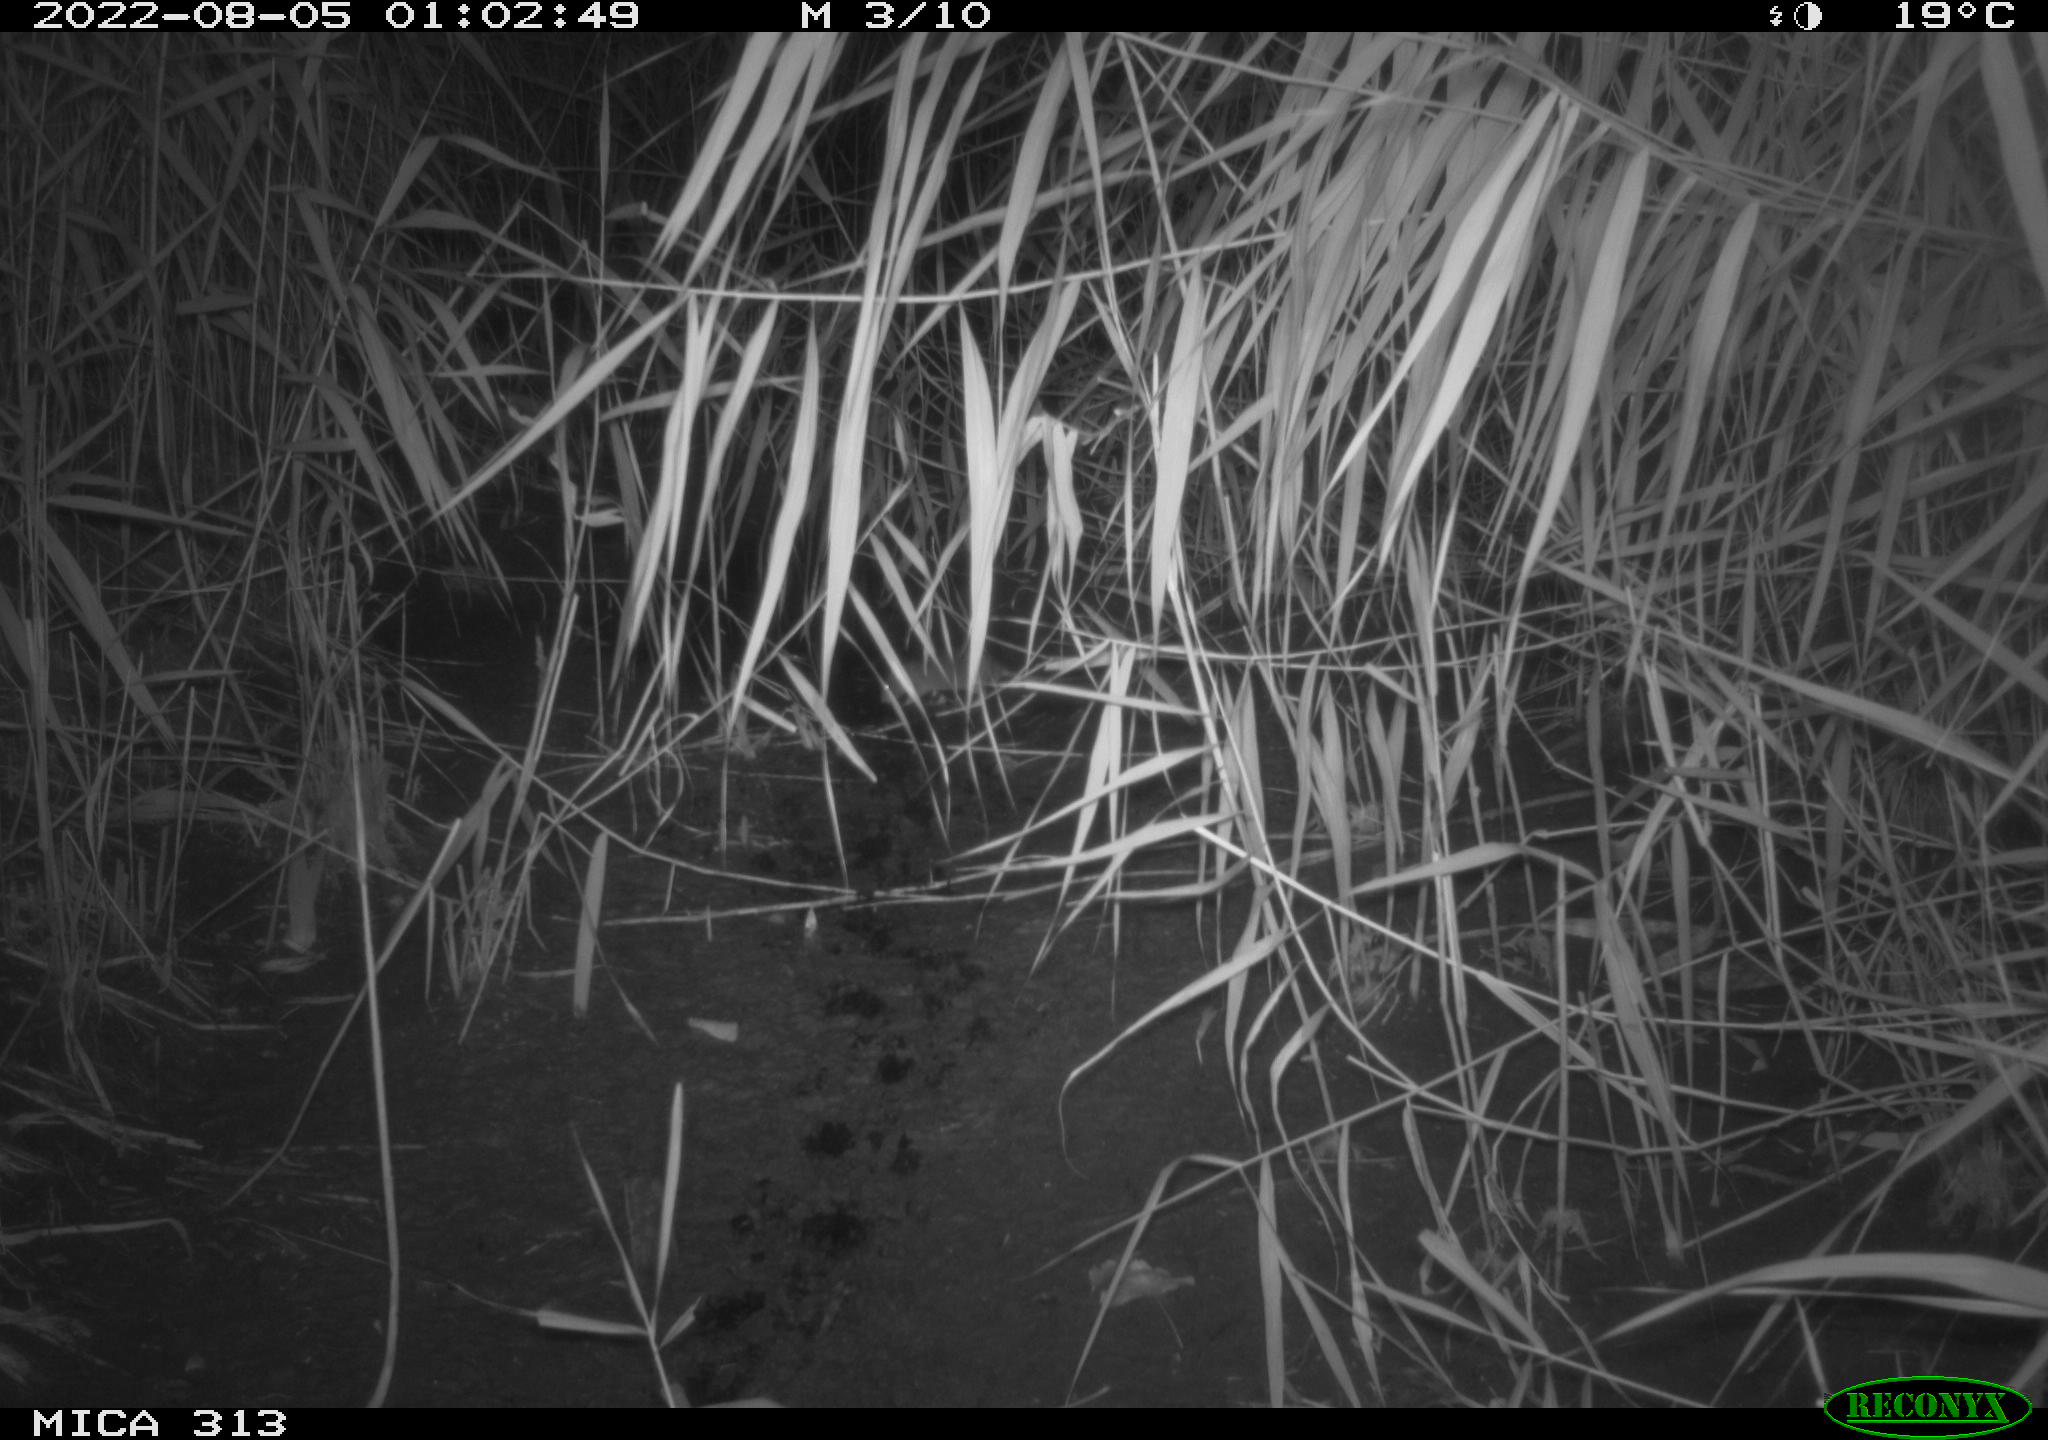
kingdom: Animalia
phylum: Chordata
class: Mammalia
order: Rodentia
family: Muridae
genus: Rattus
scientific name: Rattus norvegicus
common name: Brown rat
